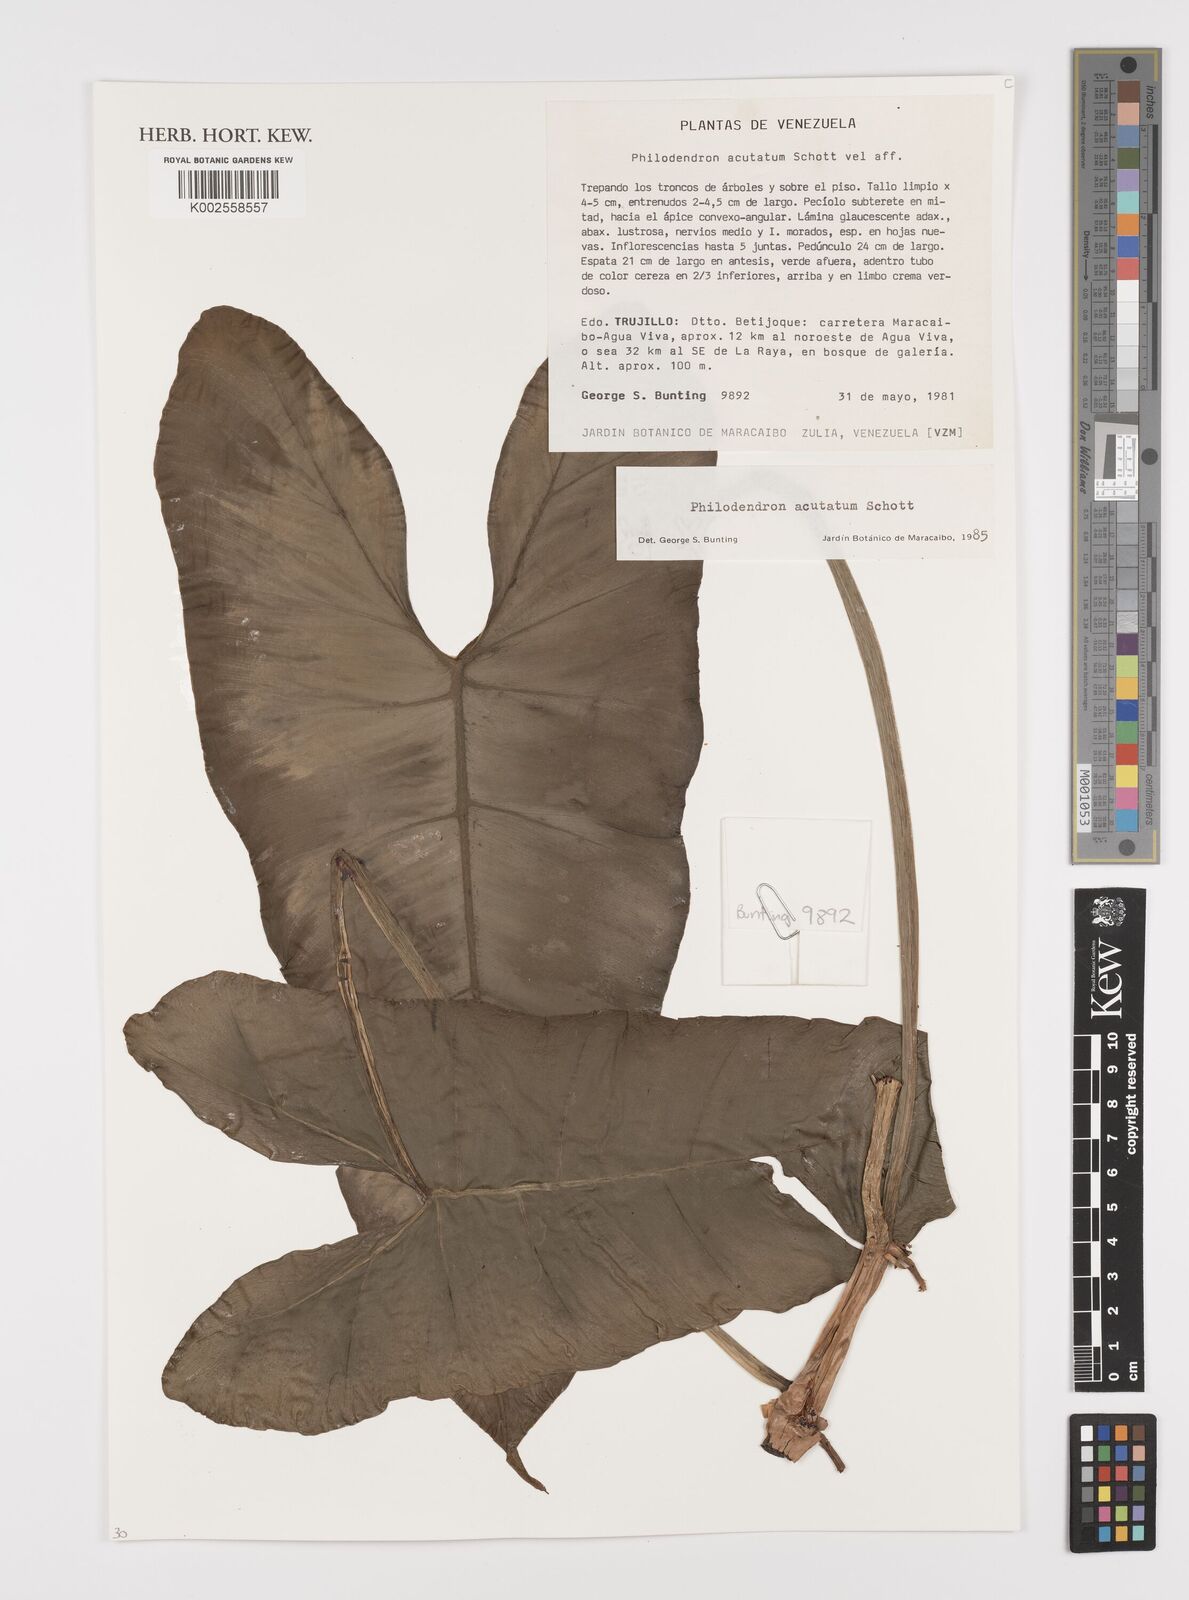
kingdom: Plantae
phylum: Tracheophyta
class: Liliopsida
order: Alismatales
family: Araceae
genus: Philodendron
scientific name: Philodendron quinquenervium
